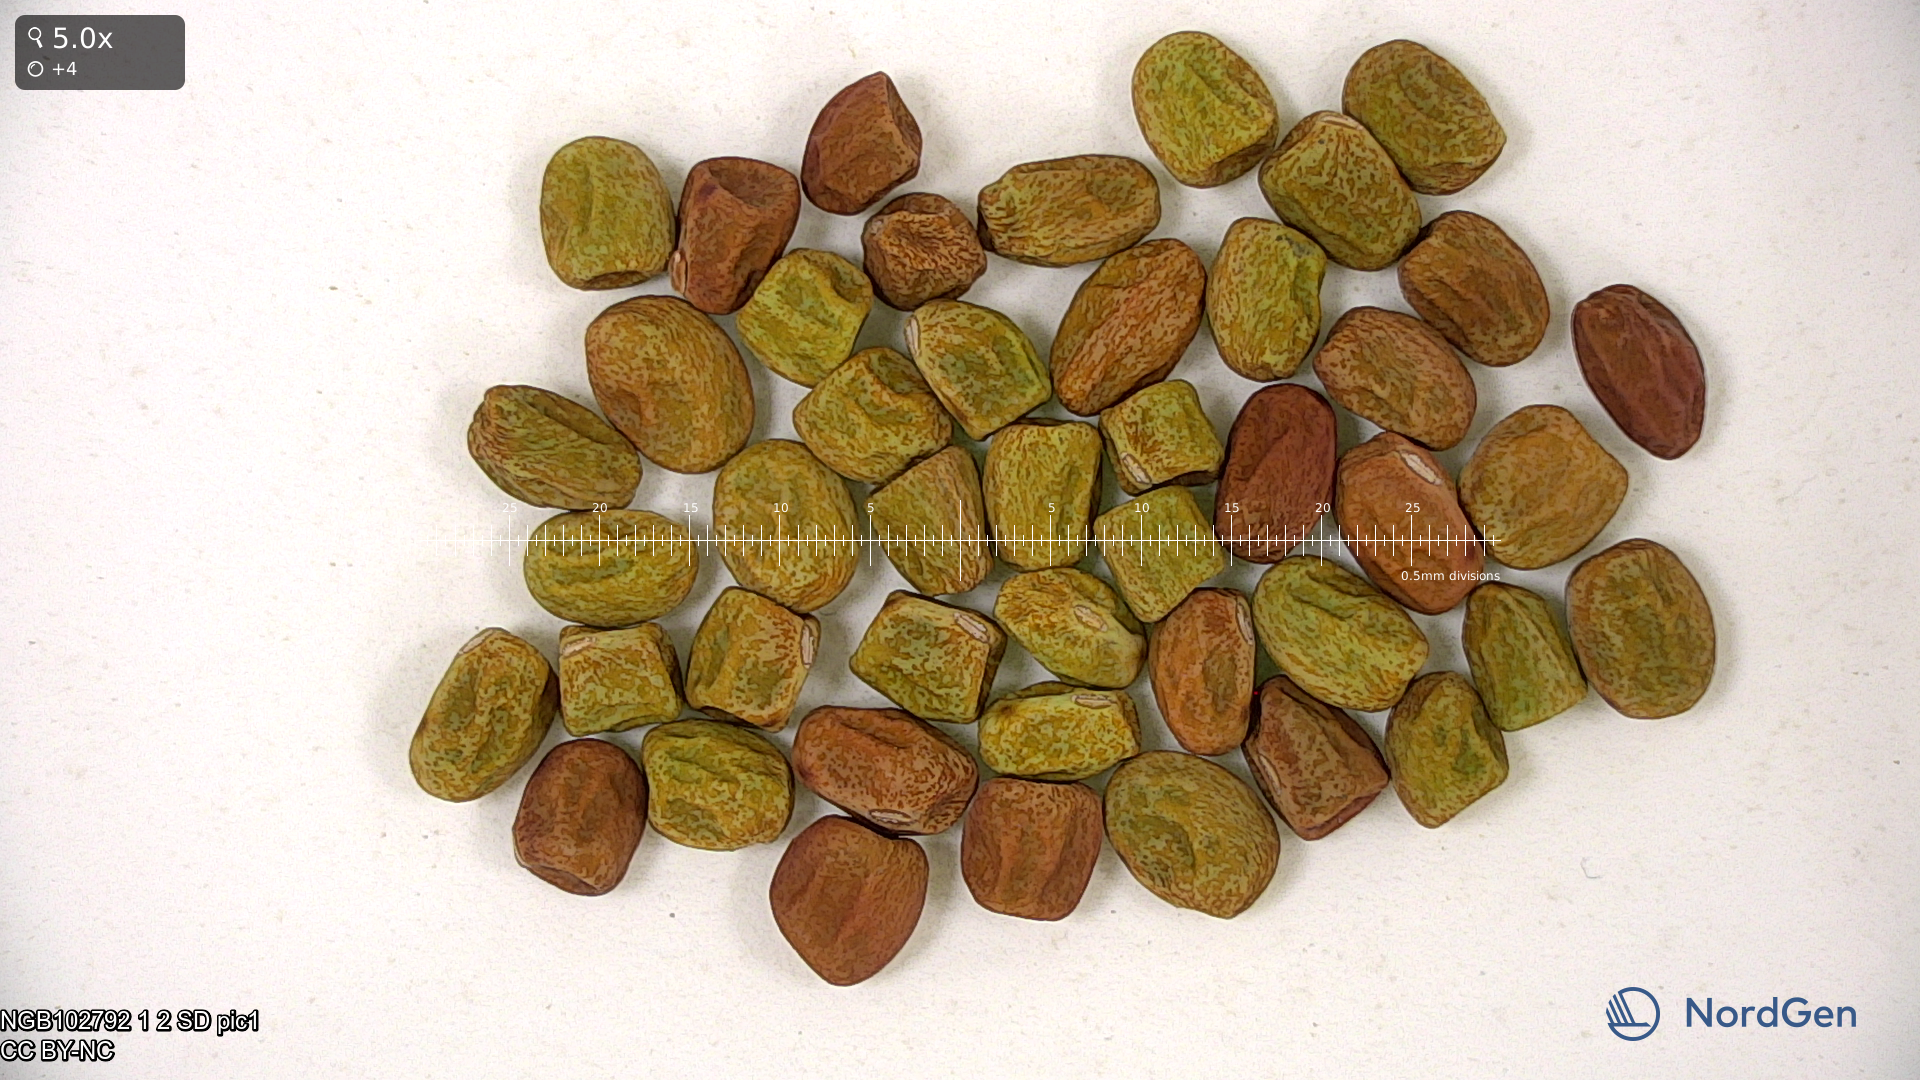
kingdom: Plantae
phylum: Tracheophyta
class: Magnoliopsida
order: Fabales
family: Fabaceae
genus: Lathyrus
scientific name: Lathyrus oleraceus
